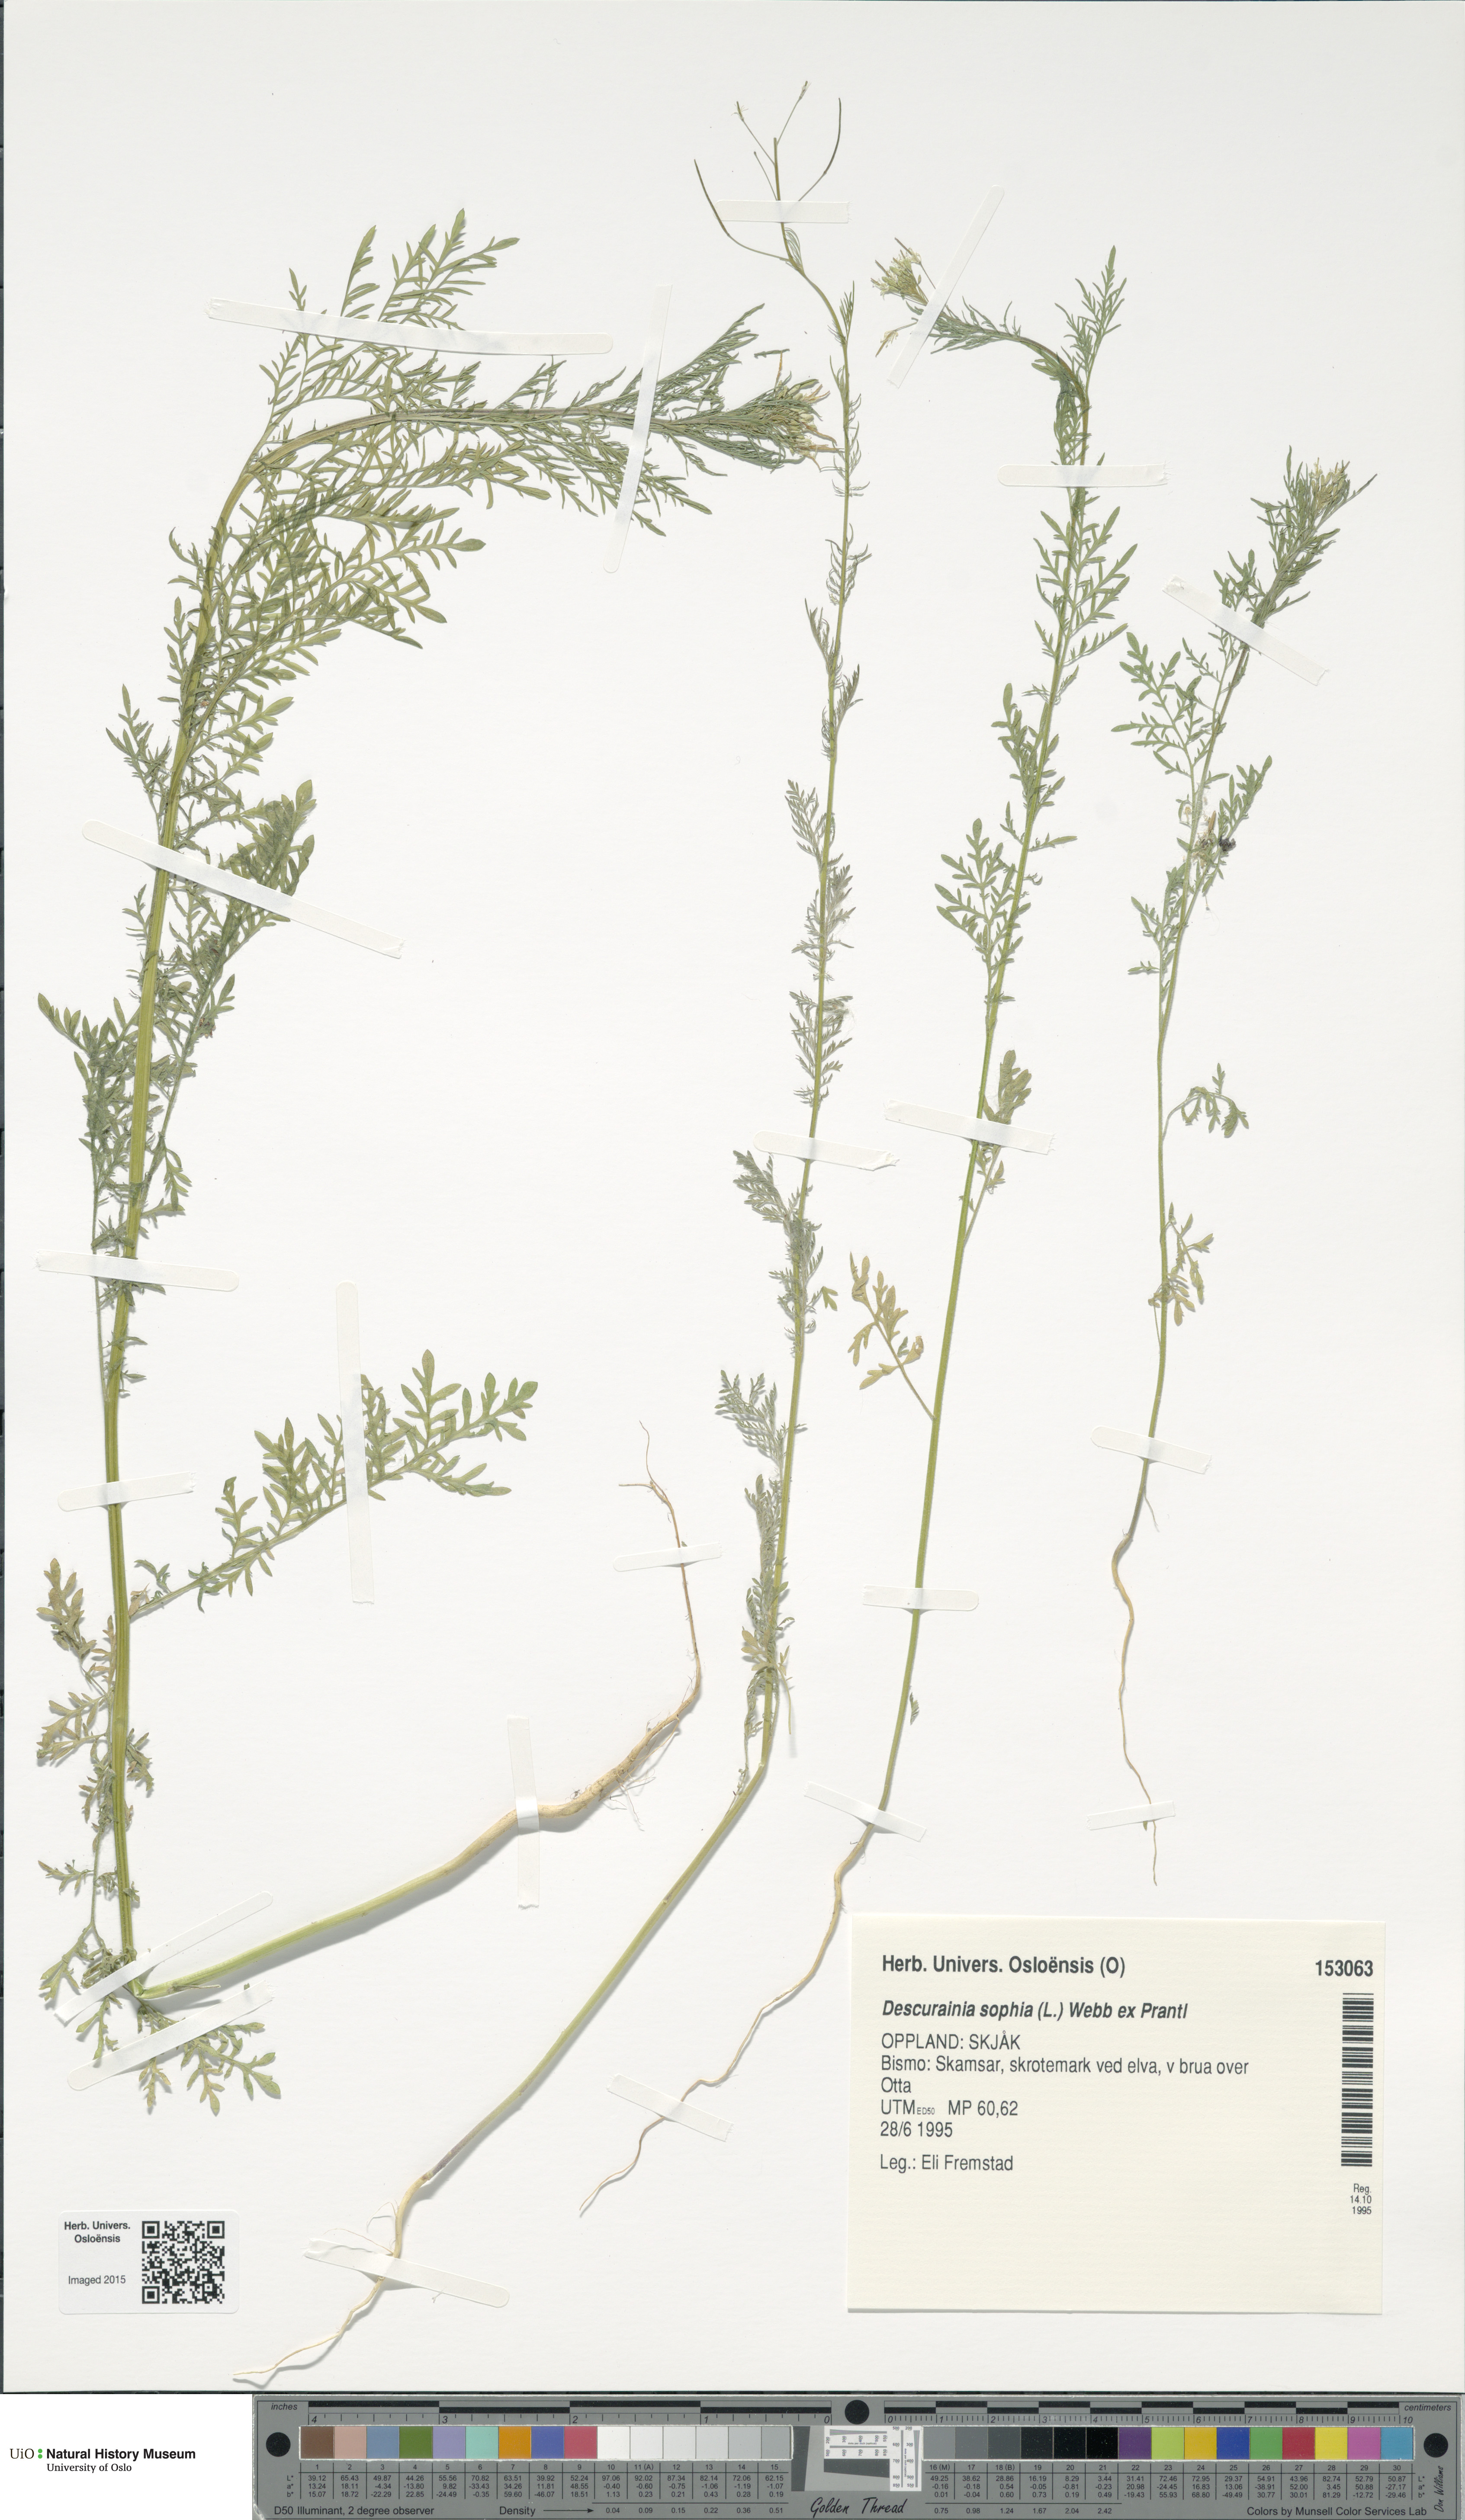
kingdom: Plantae
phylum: Tracheophyta
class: Magnoliopsida
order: Brassicales
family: Brassicaceae
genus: Descurainia
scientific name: Descurainia sophia
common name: Flixweed
